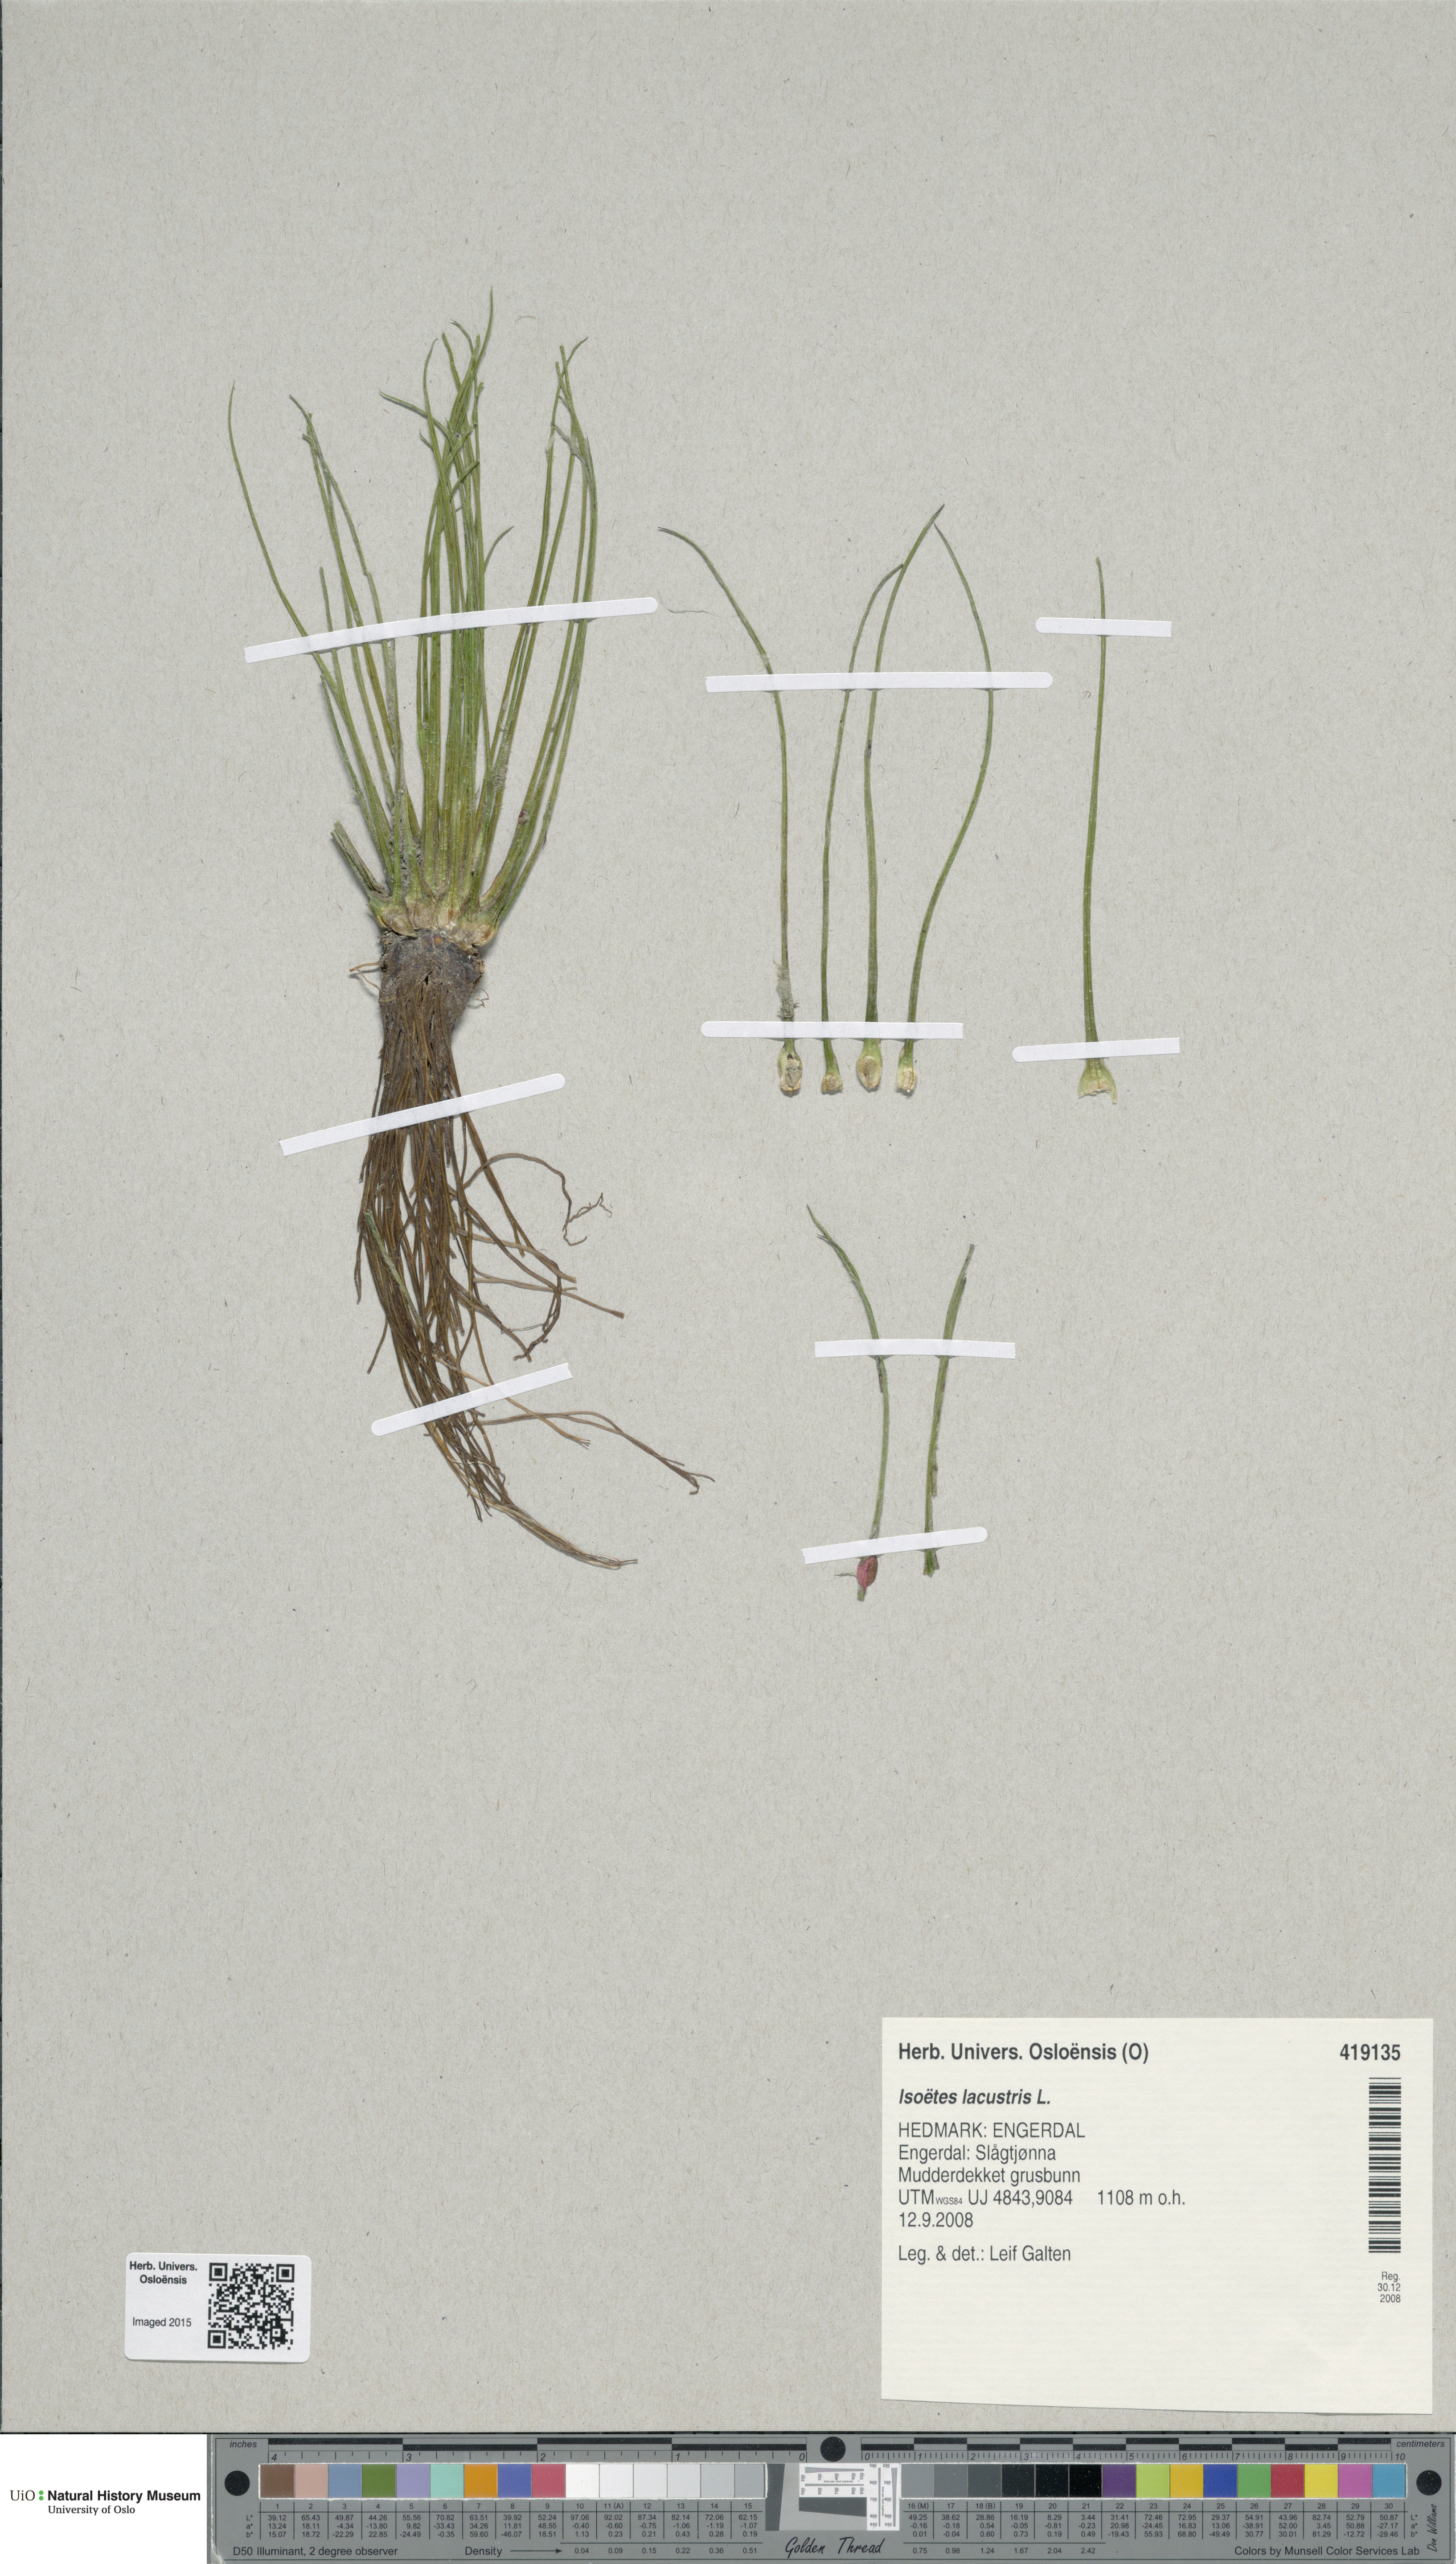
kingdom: Plantae
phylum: Tracheophyta
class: Lycopodiopsida
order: Isoetales
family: Isoetaceae
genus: Isoetes
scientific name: Isoetes lacustris
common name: Common quillwort
